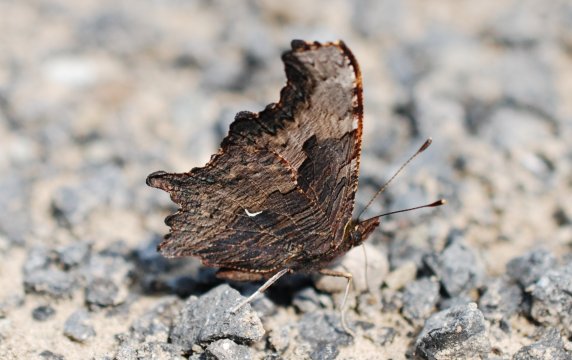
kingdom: Animalia
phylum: Arthropoda
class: Insecta
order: Lepidoptera
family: Nymphalidae
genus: Polygonia
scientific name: Polygonia progne
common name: Gray Comma
